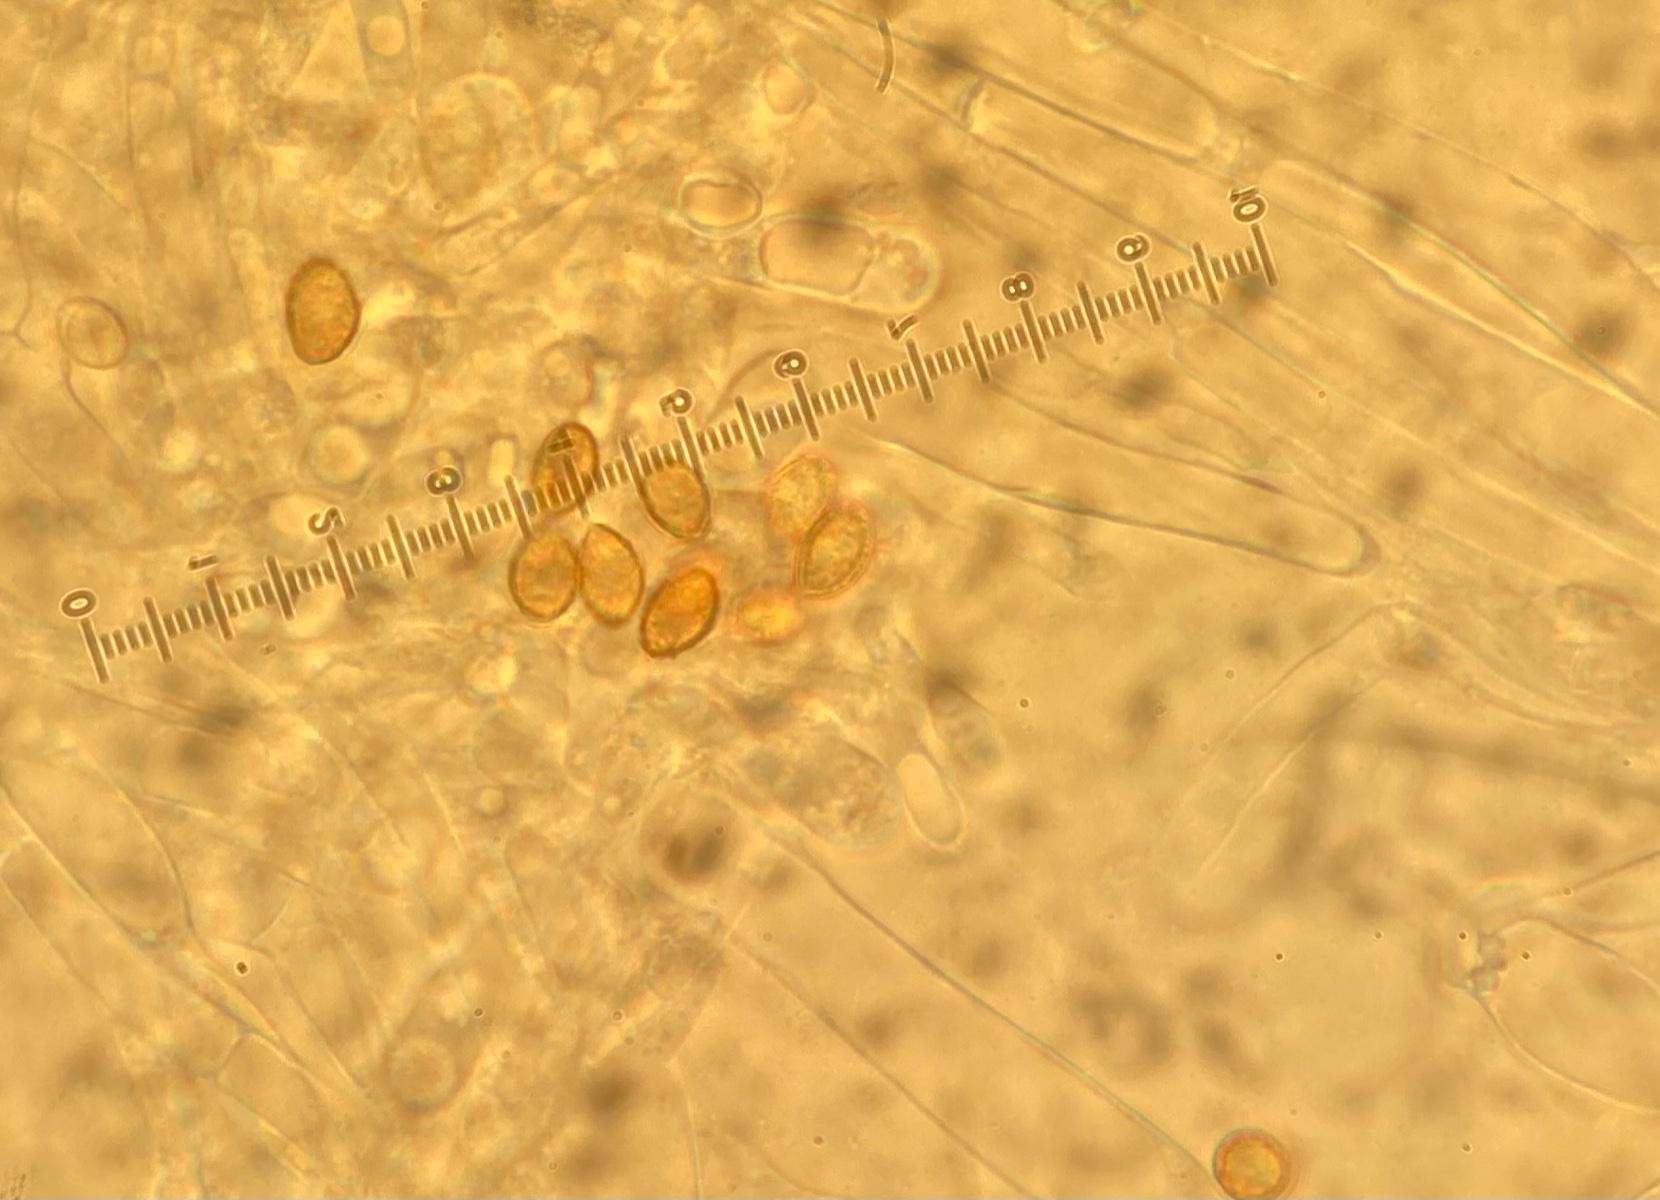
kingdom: Fungi
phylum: Basidiomycota
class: Agaricomycetes
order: Agaricales
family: Cortinariaceae
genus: Cortinarius
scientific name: Cortinarius urbicus
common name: sølv-slørhat
